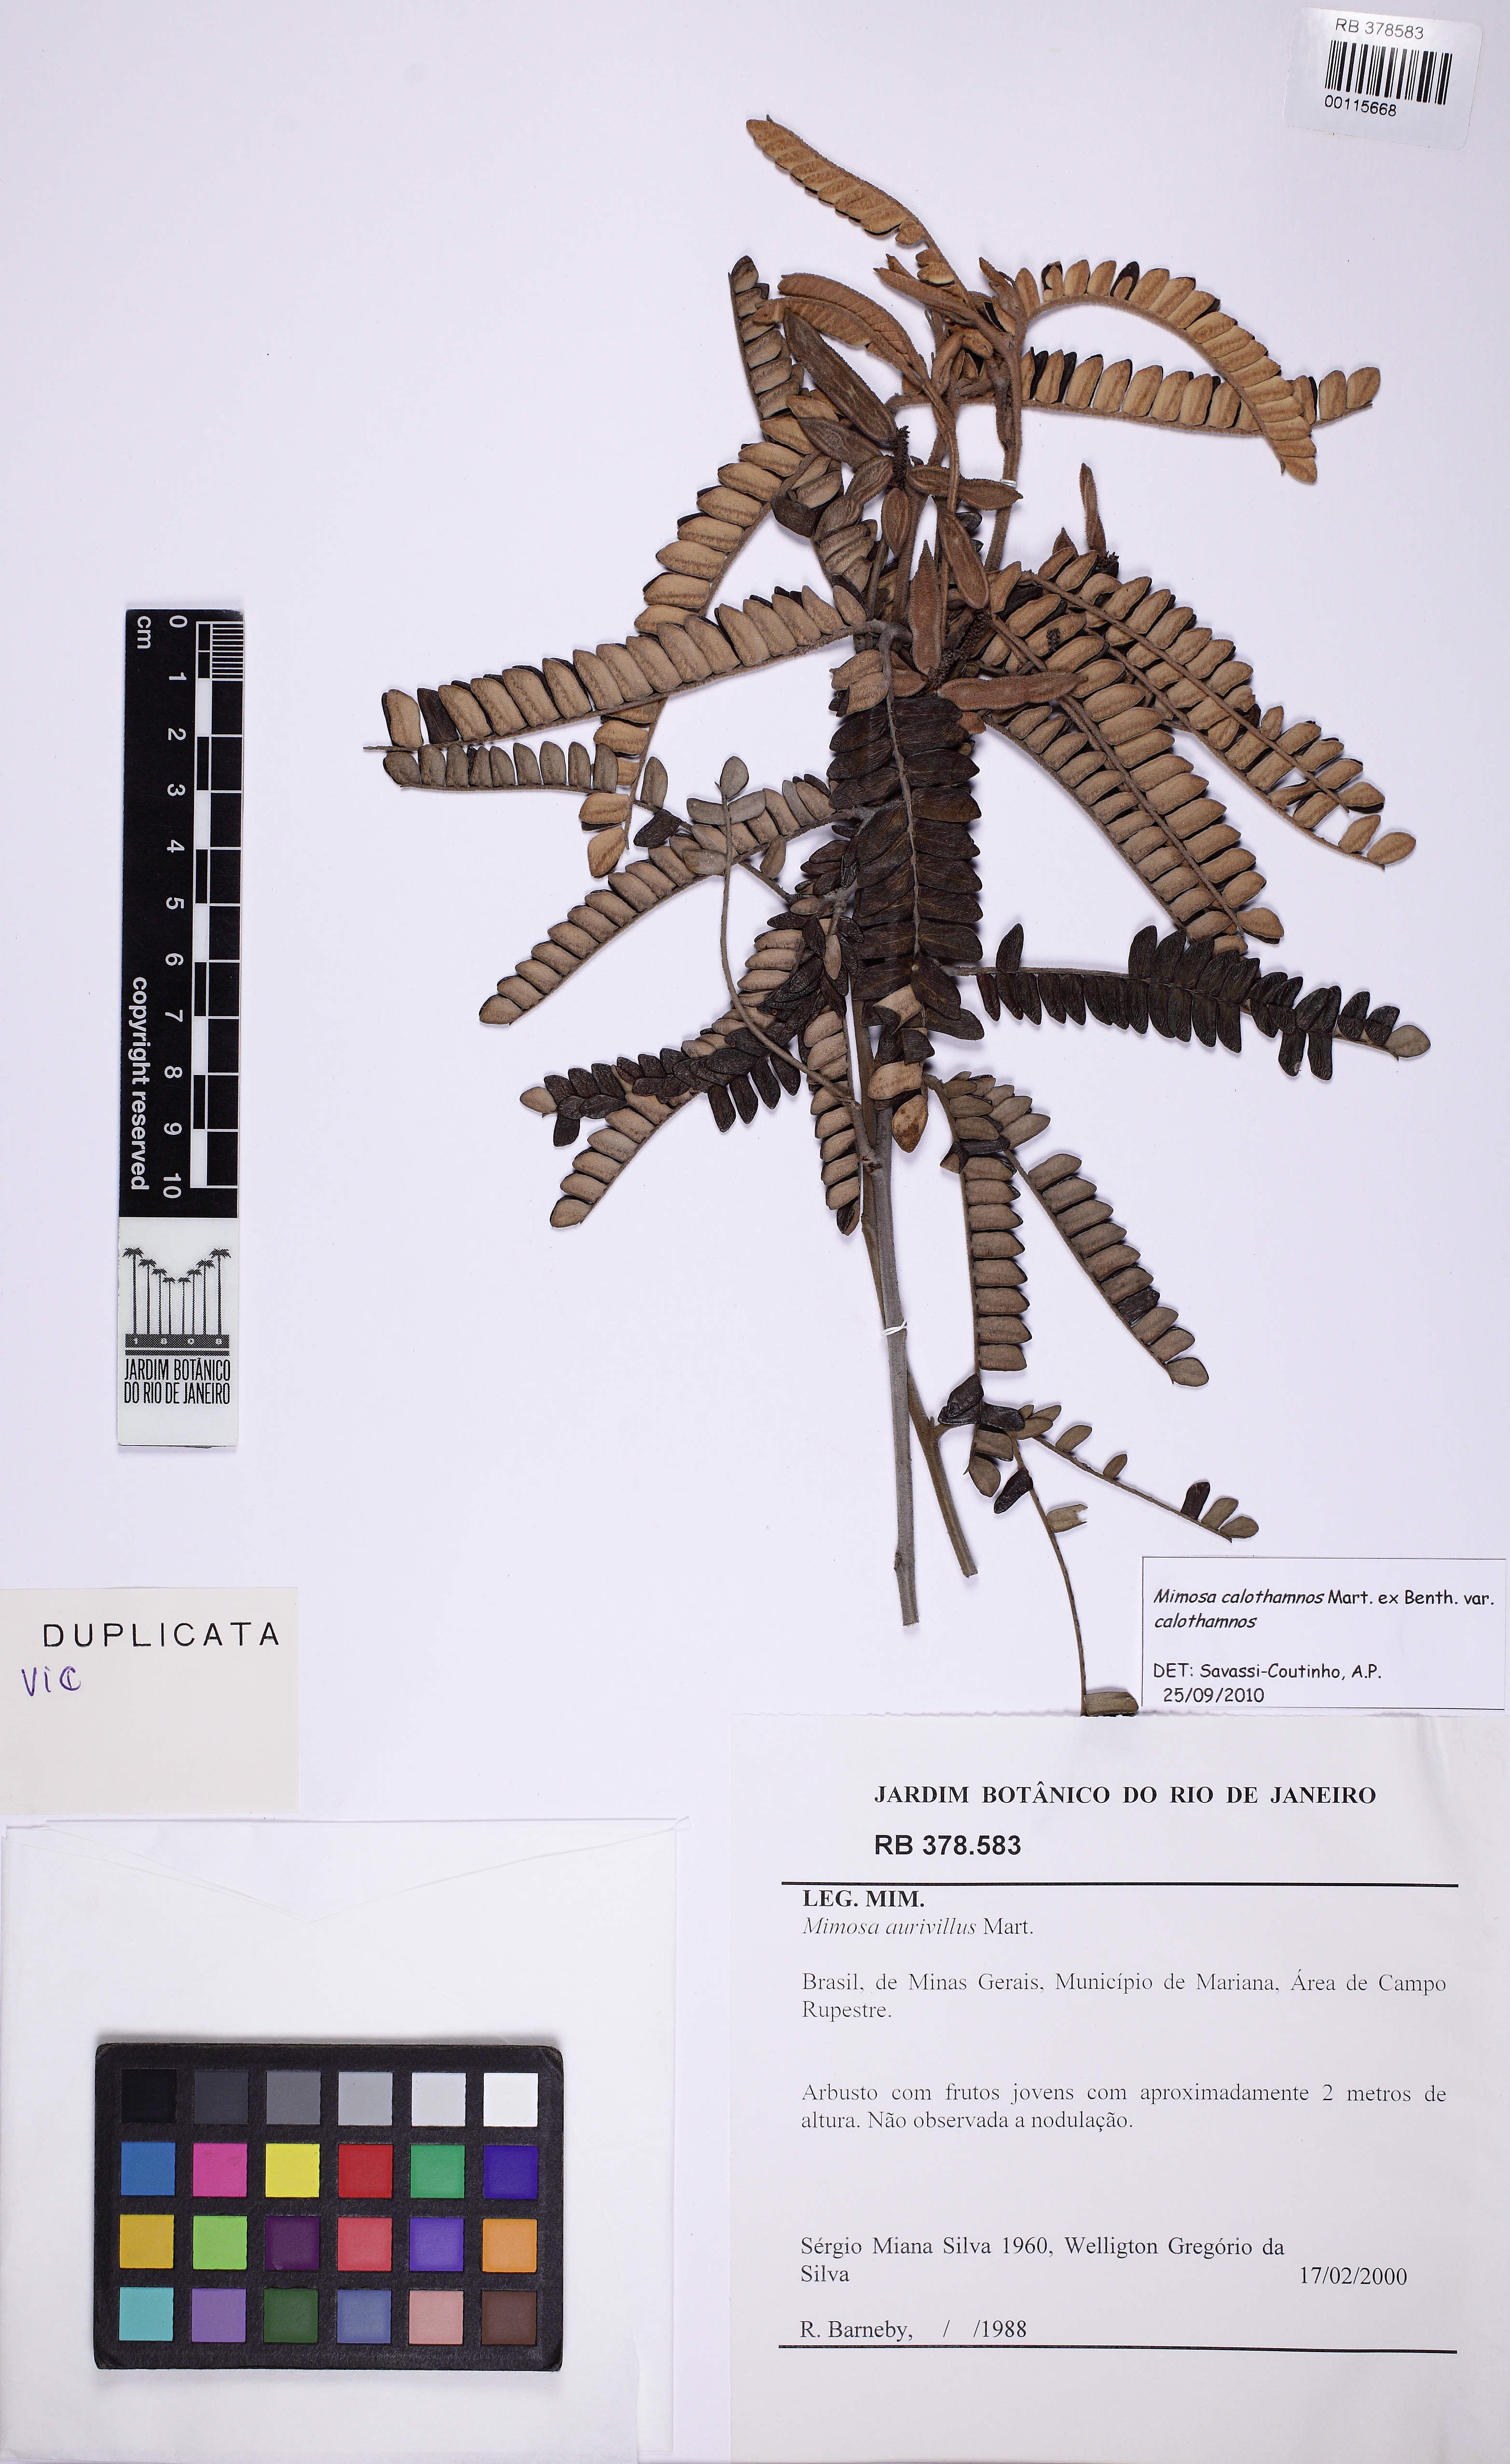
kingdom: Plantae
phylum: Tracheophyta
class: Magnoliopsida
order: Fabales
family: Fabaceae
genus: Mimosa
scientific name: Mimosa aurivillus
